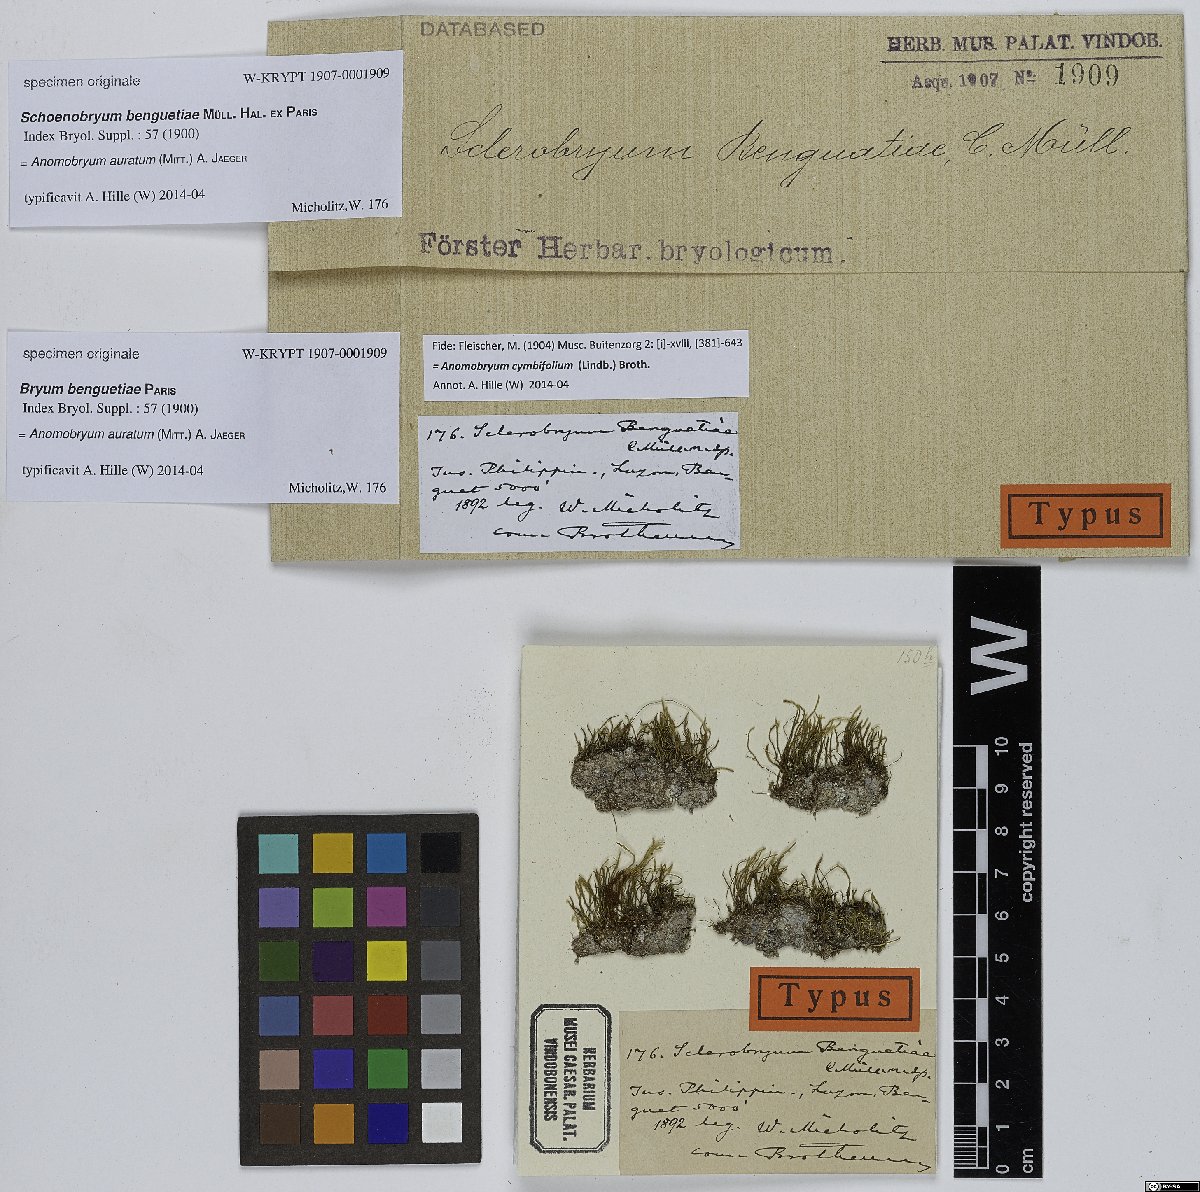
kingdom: Plantae
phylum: Bryophyta
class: Bryopsida
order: Bryales
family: Bryaceae
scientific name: Bryaceae
